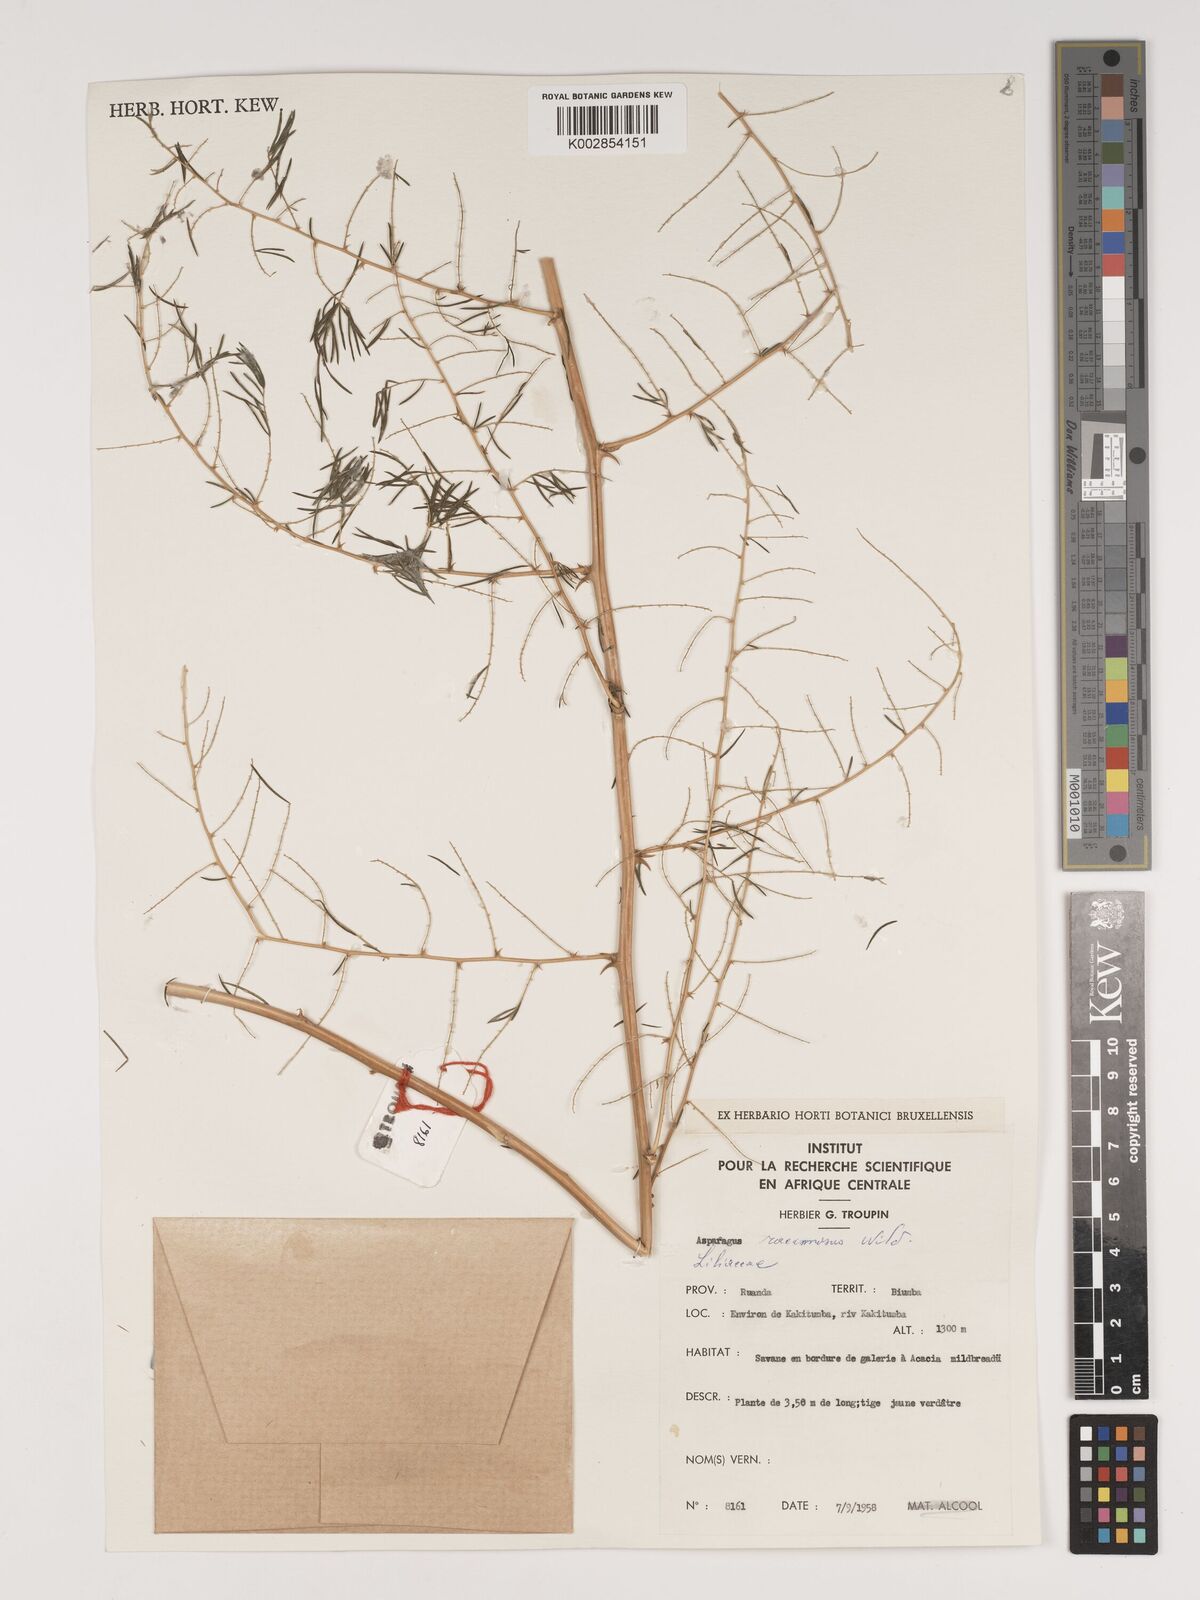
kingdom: Plantae
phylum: Tracheophyta
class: Liliopsida
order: Asparagales
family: Asparagaceae
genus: Asparagus
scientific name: Asparagus racemosus
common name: Asparagus-fern
